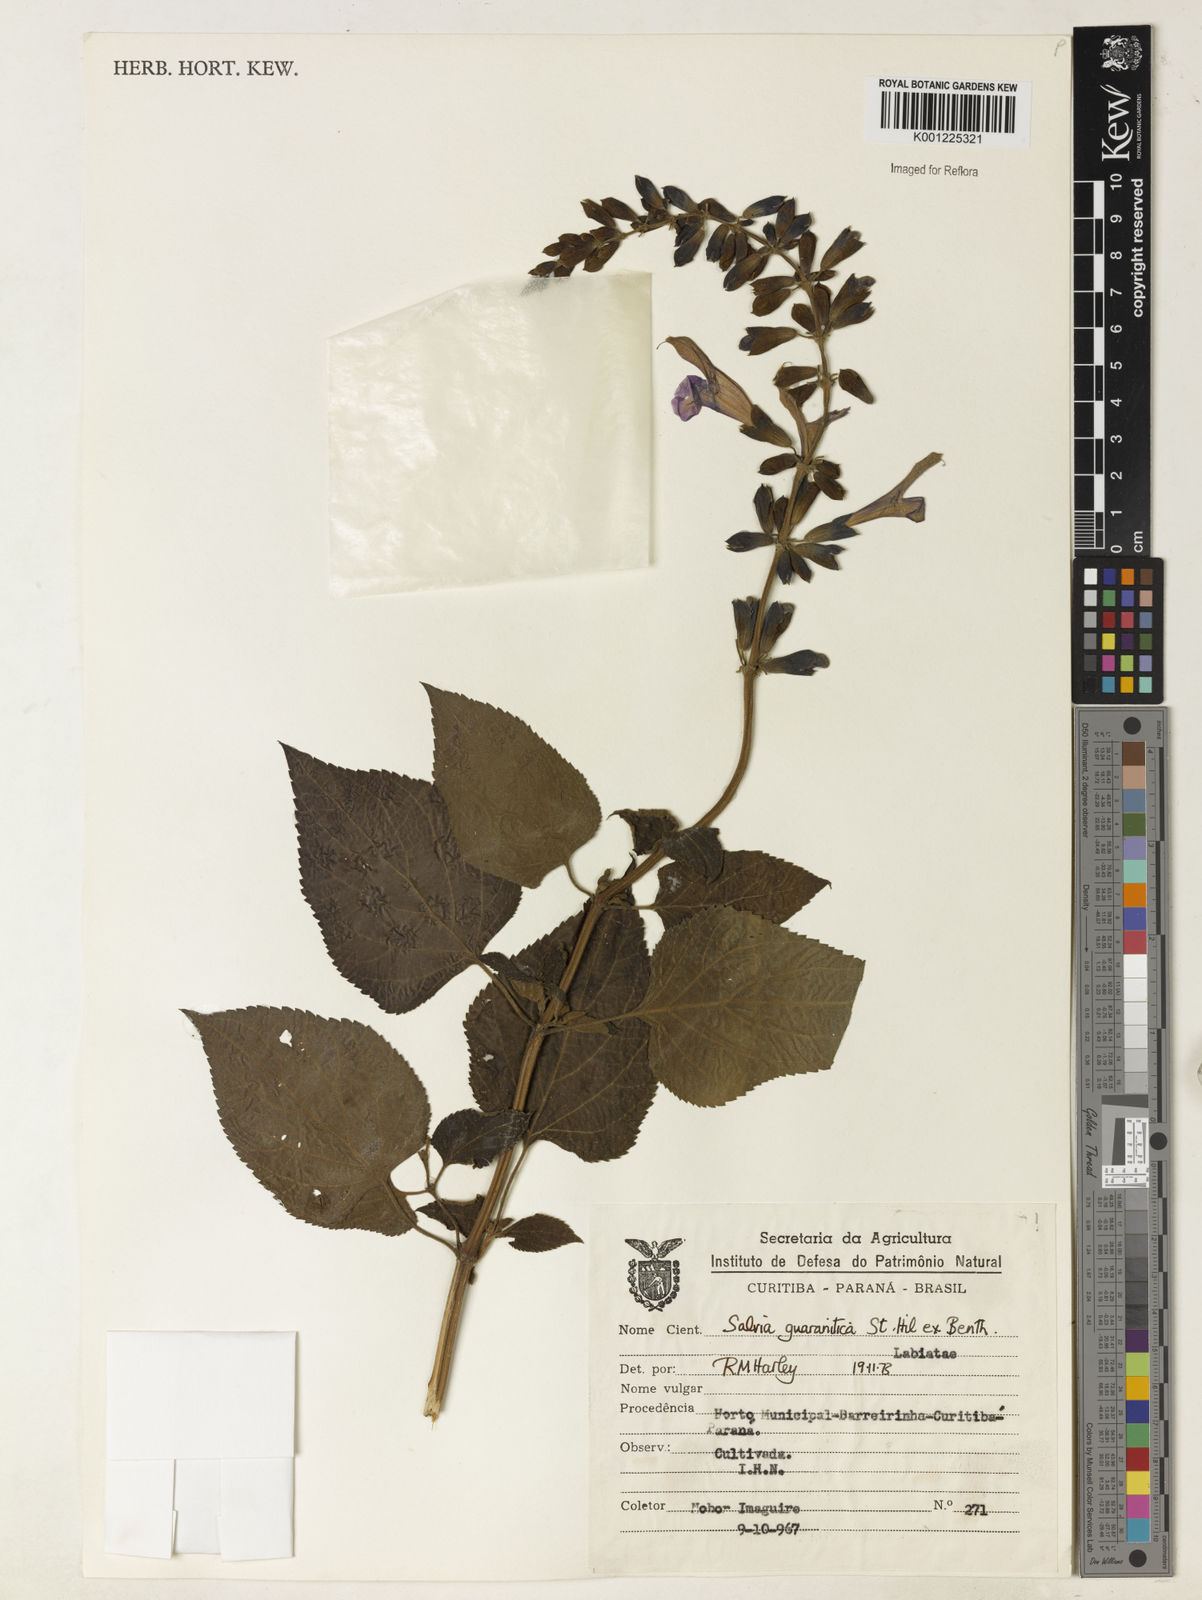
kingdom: Plantae
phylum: Tracheophyta
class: Magnoliopsida
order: Lamiales
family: Lamiaceae
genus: Salvia
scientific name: Salvia guaranitica
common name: Anise-scented sage
